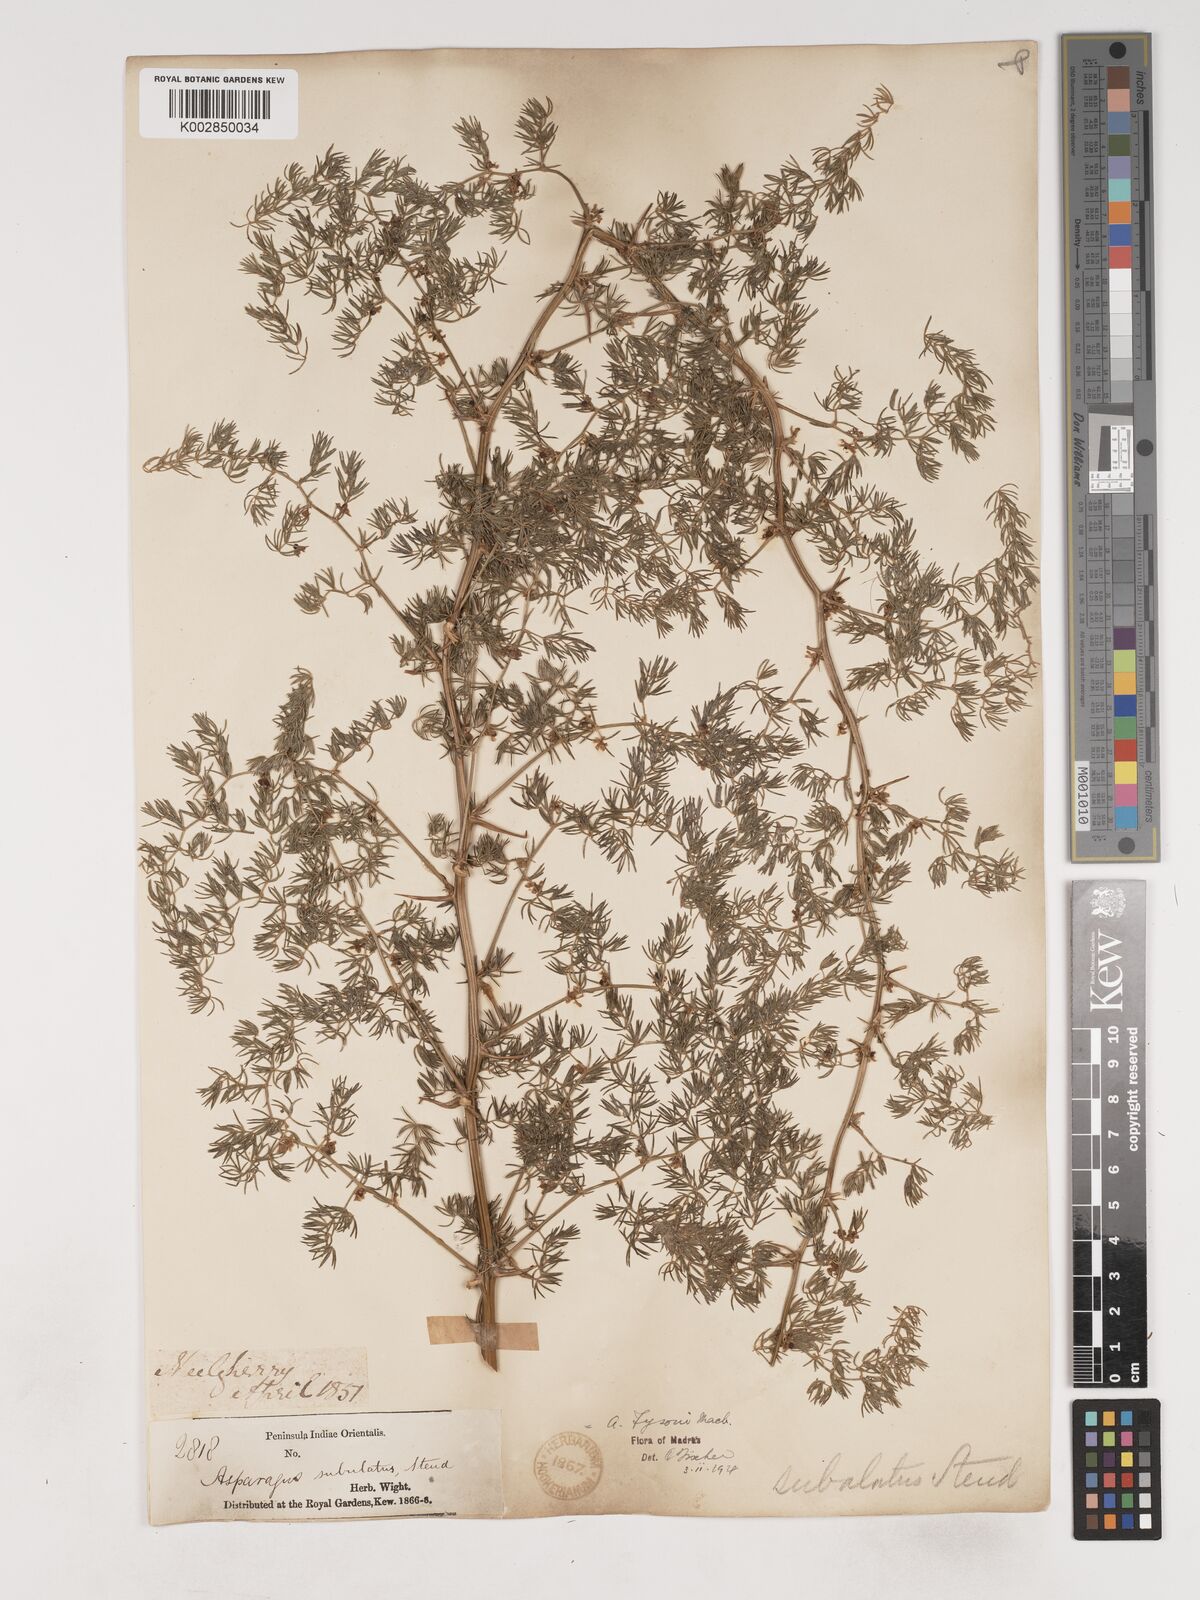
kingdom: Plantae
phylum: Tracheophyta
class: Liliopsida
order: Asparagales
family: Asparagaceae
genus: Asparagus
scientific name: Asparagus fysonii
